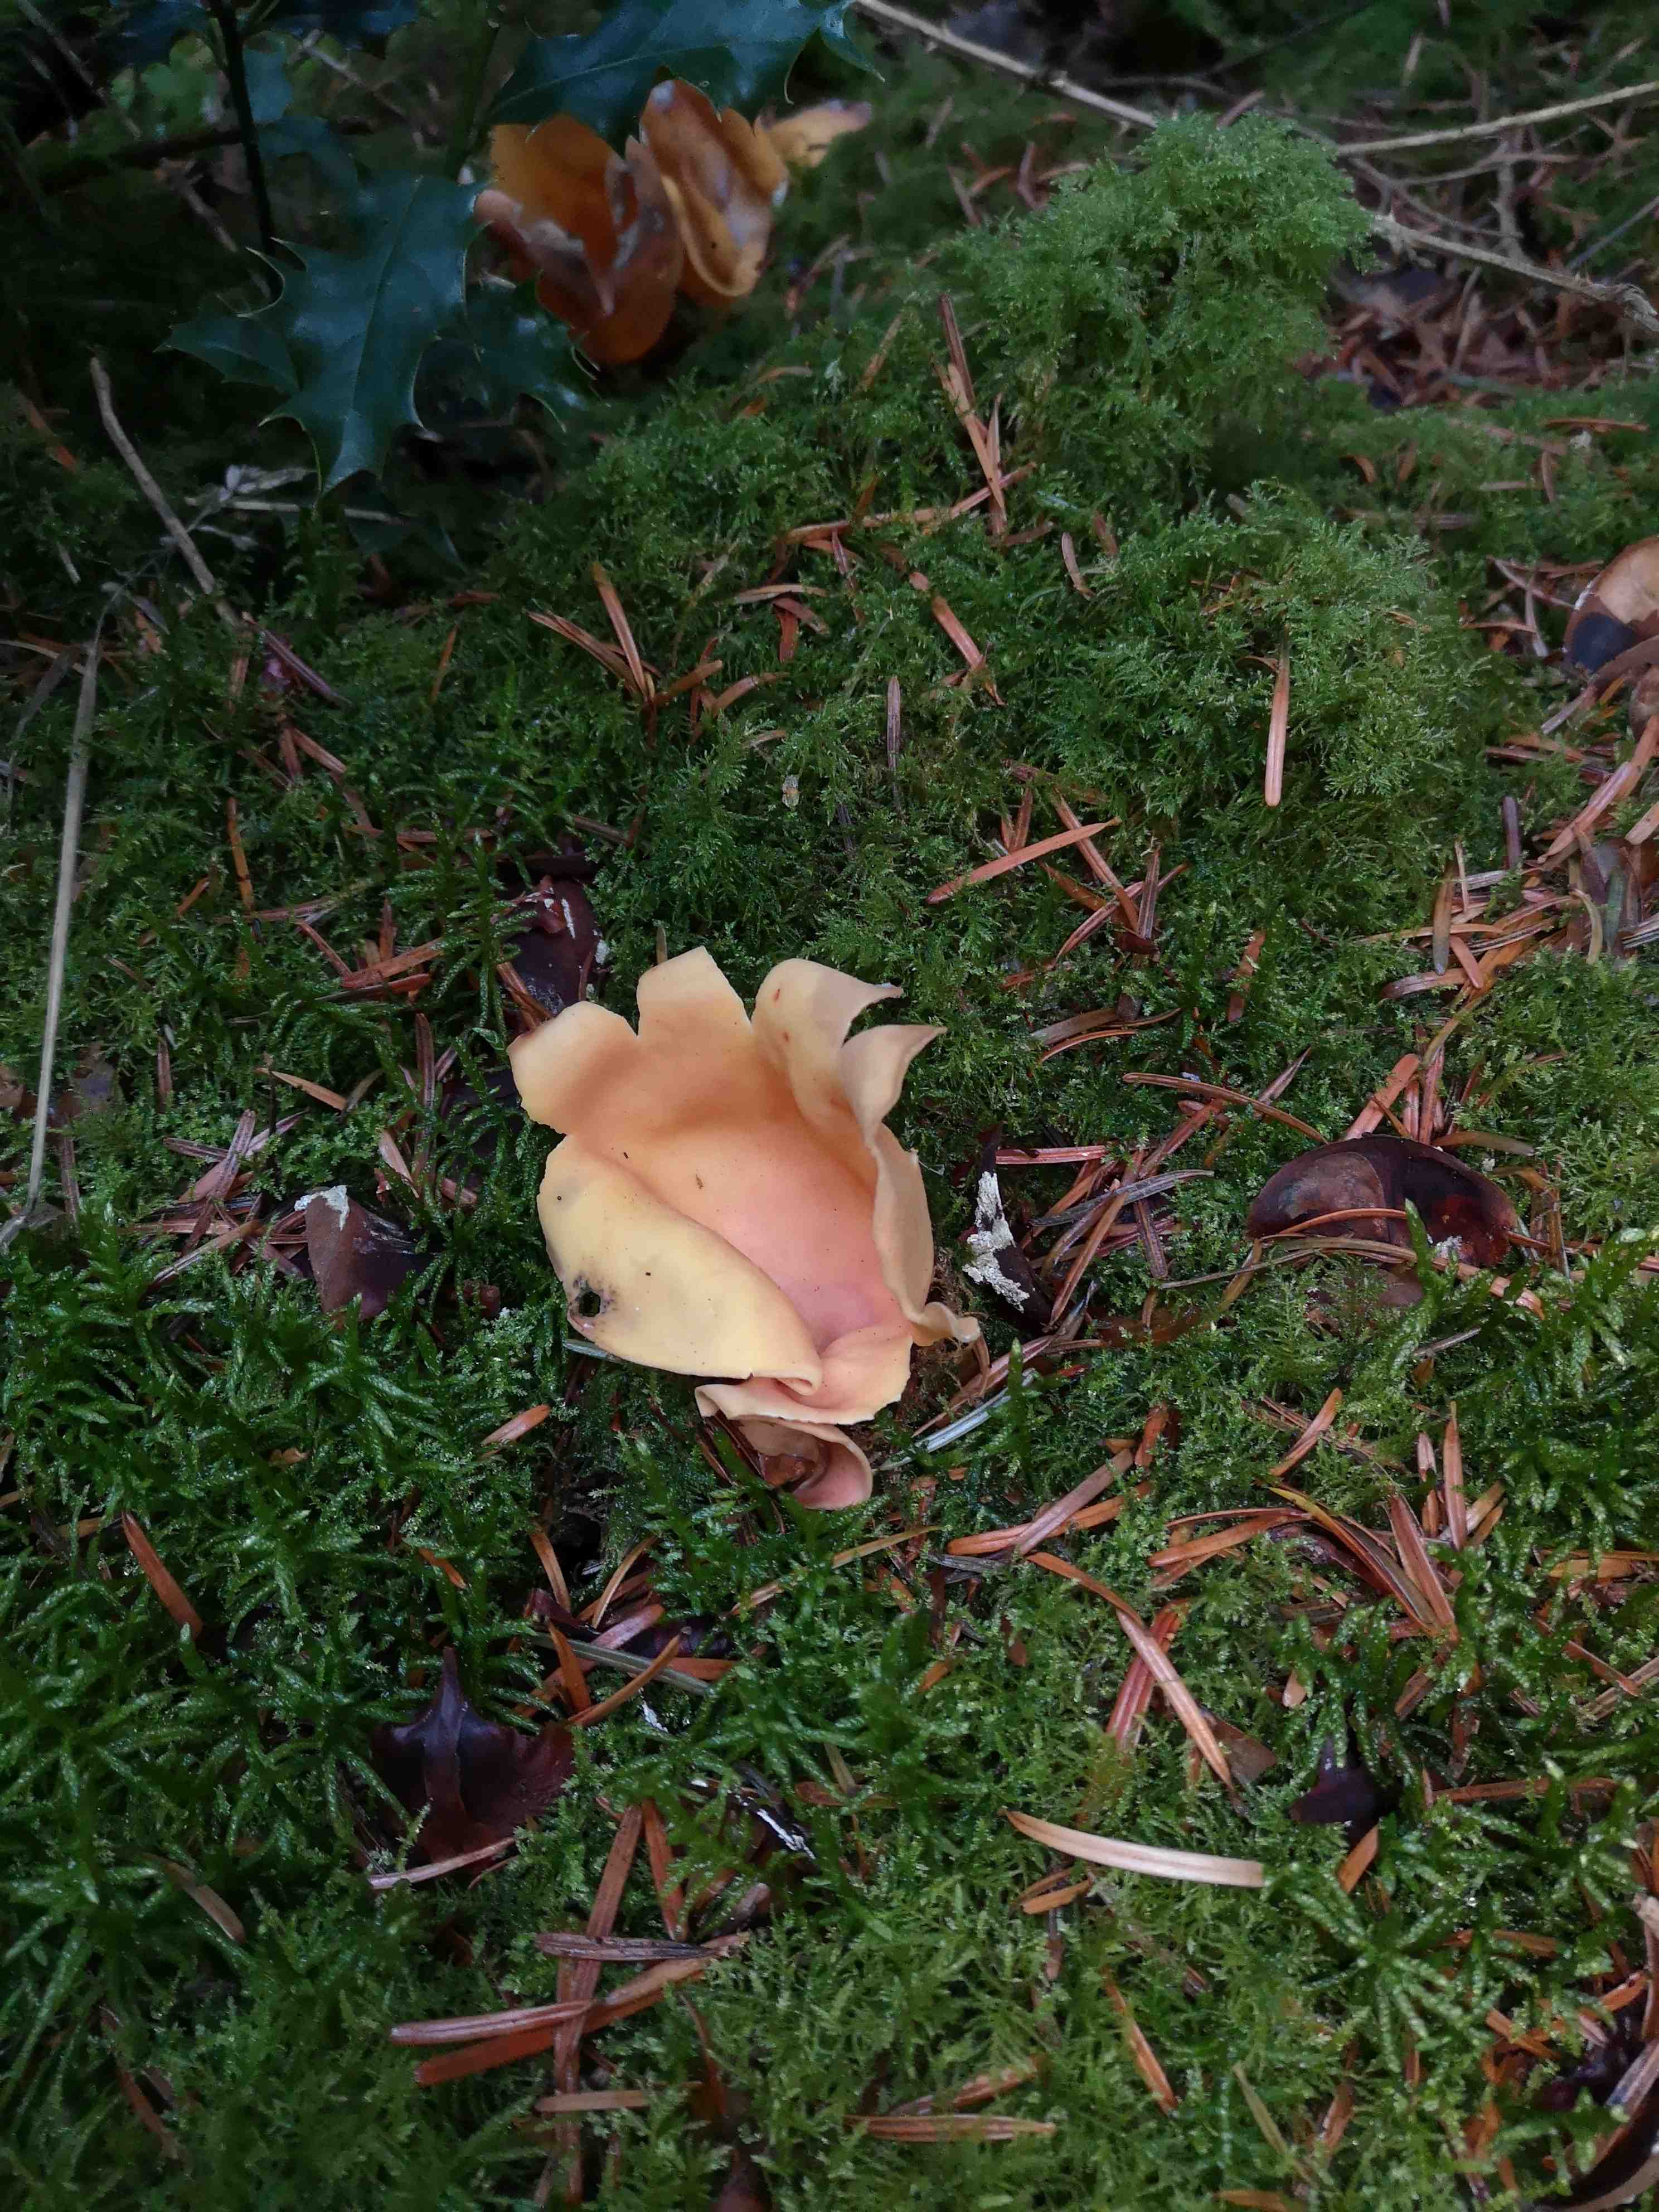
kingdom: Fungi
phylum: Ascomycota
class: Pezizomycetes
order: Pezizales
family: Otideaceae
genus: Otidea
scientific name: Otidea onotica
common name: æsel-ørebæger
